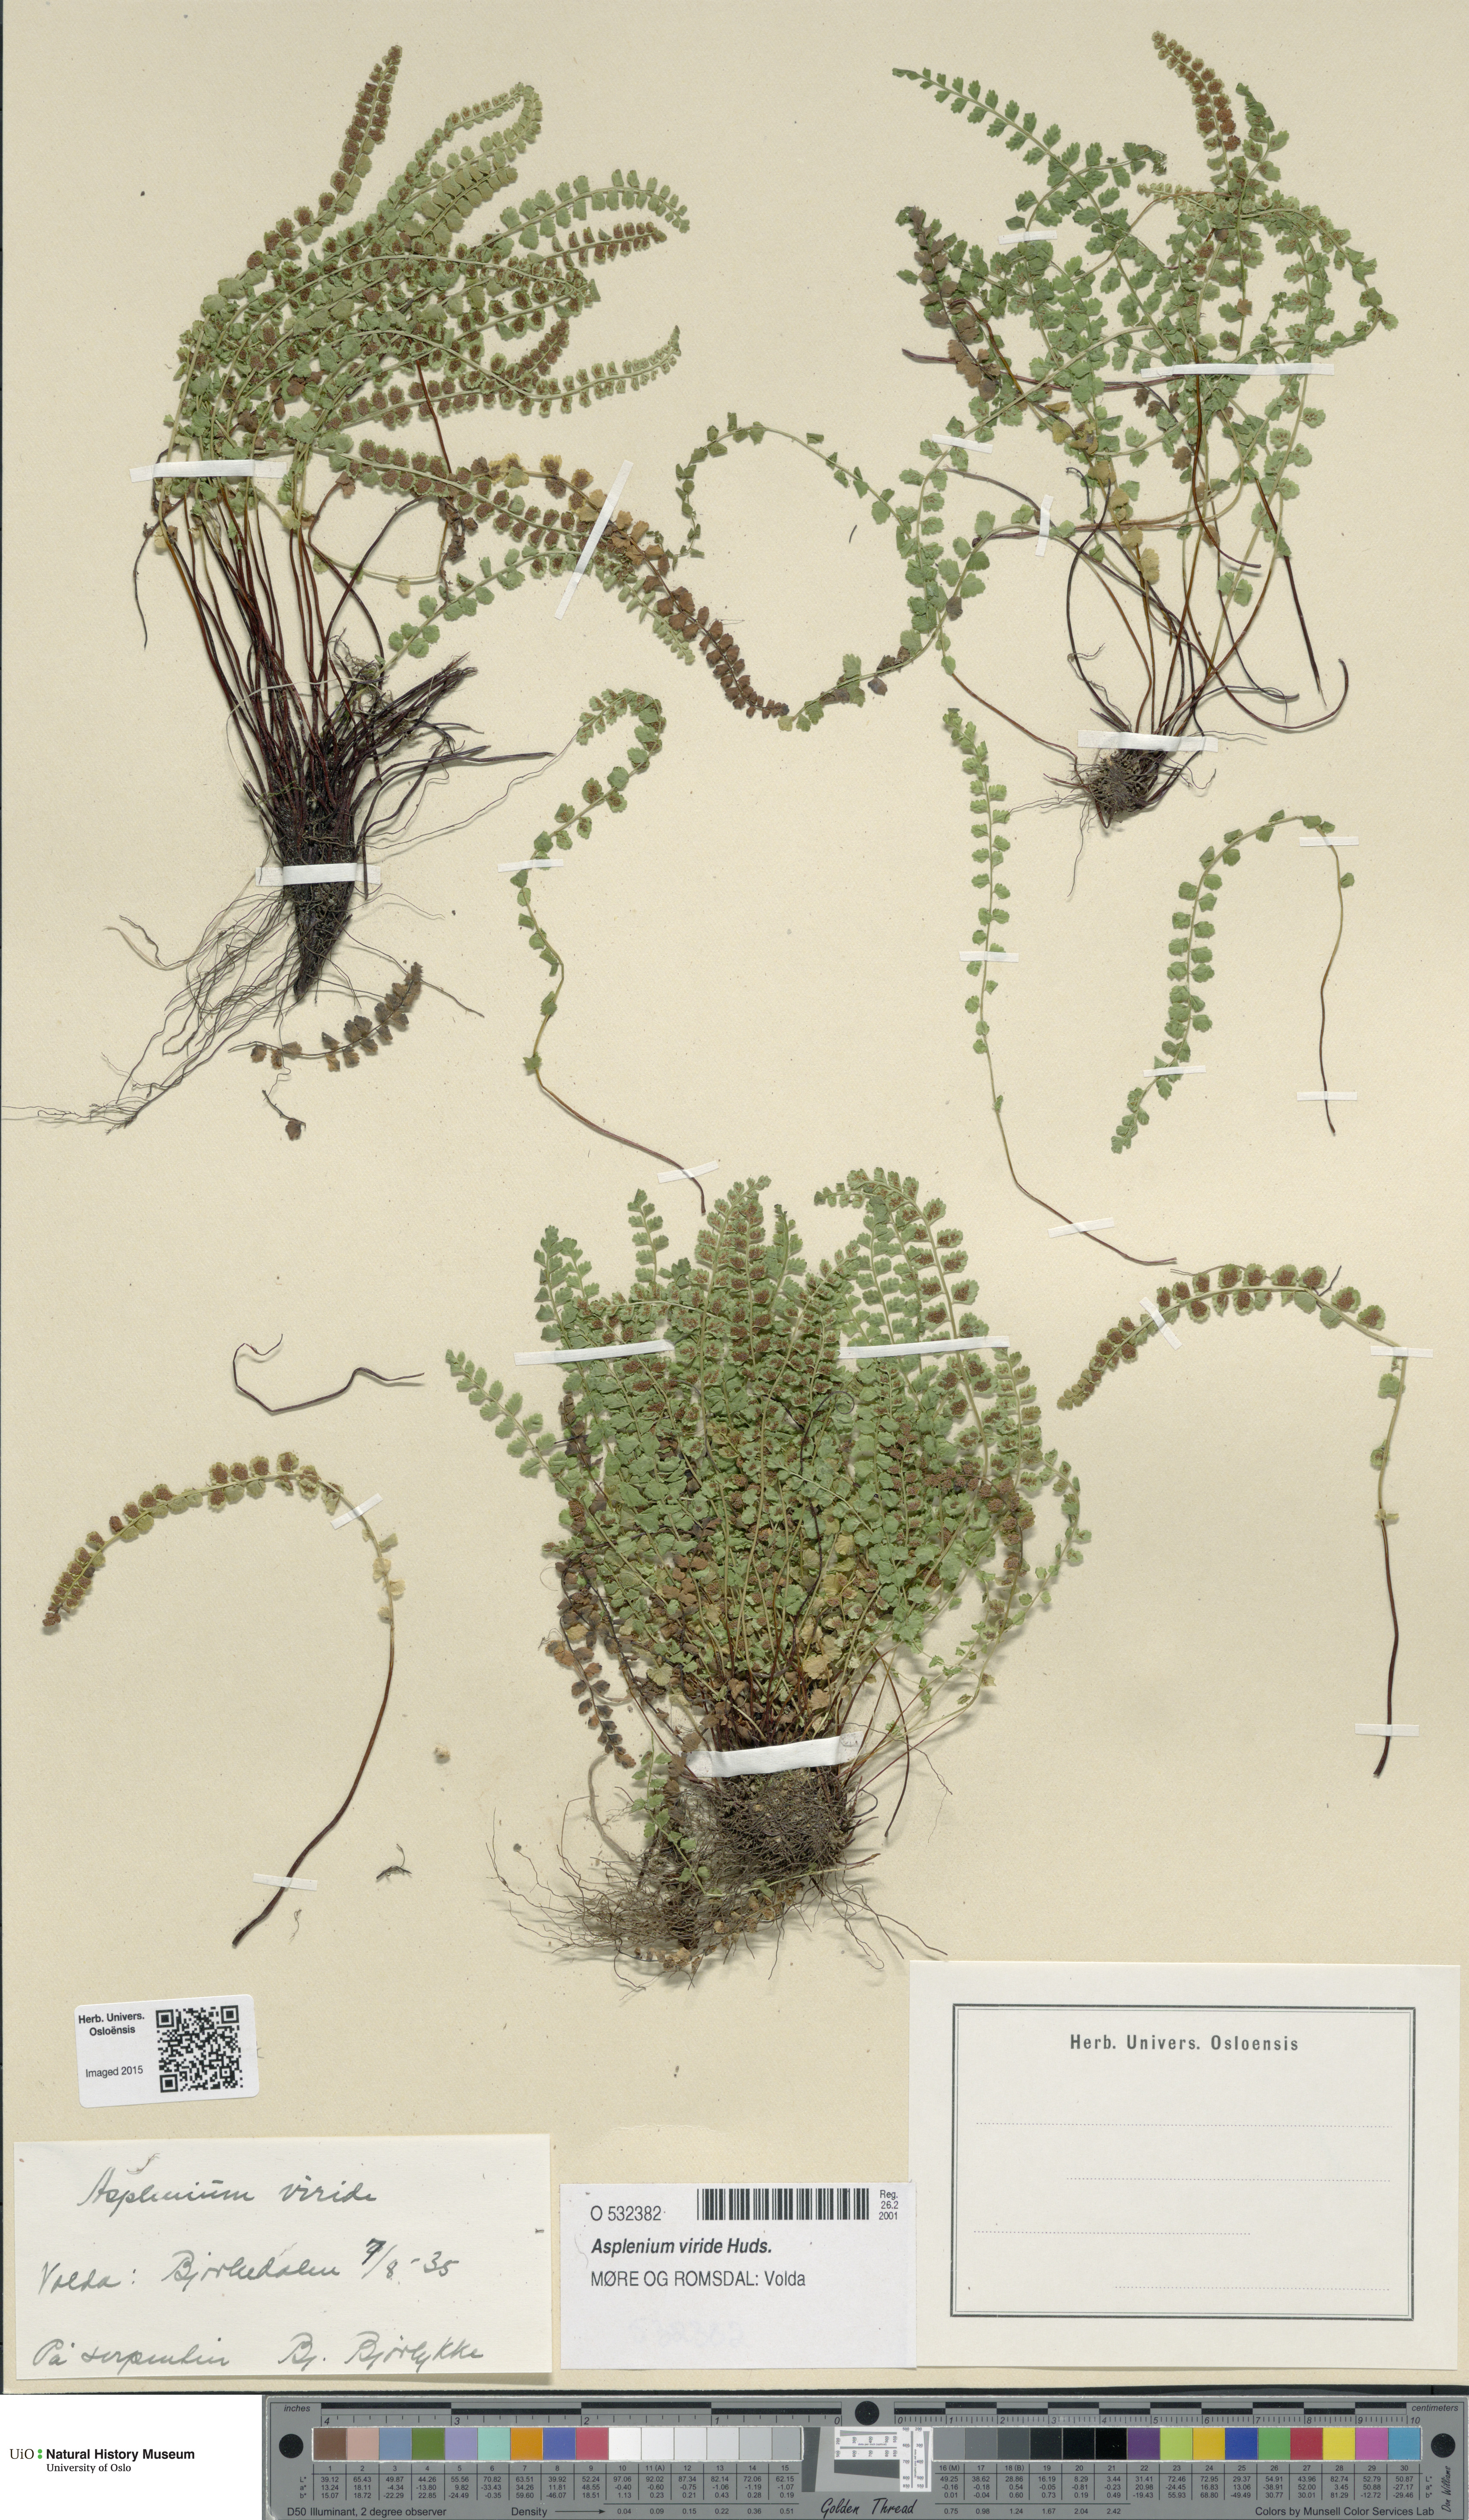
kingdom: Plantae
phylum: Tracheophyta
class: Polypodiopsida
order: Polypodiales
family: Aspleniaceae
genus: Asplenium
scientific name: Asplenium viride
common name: Green spleenwort
